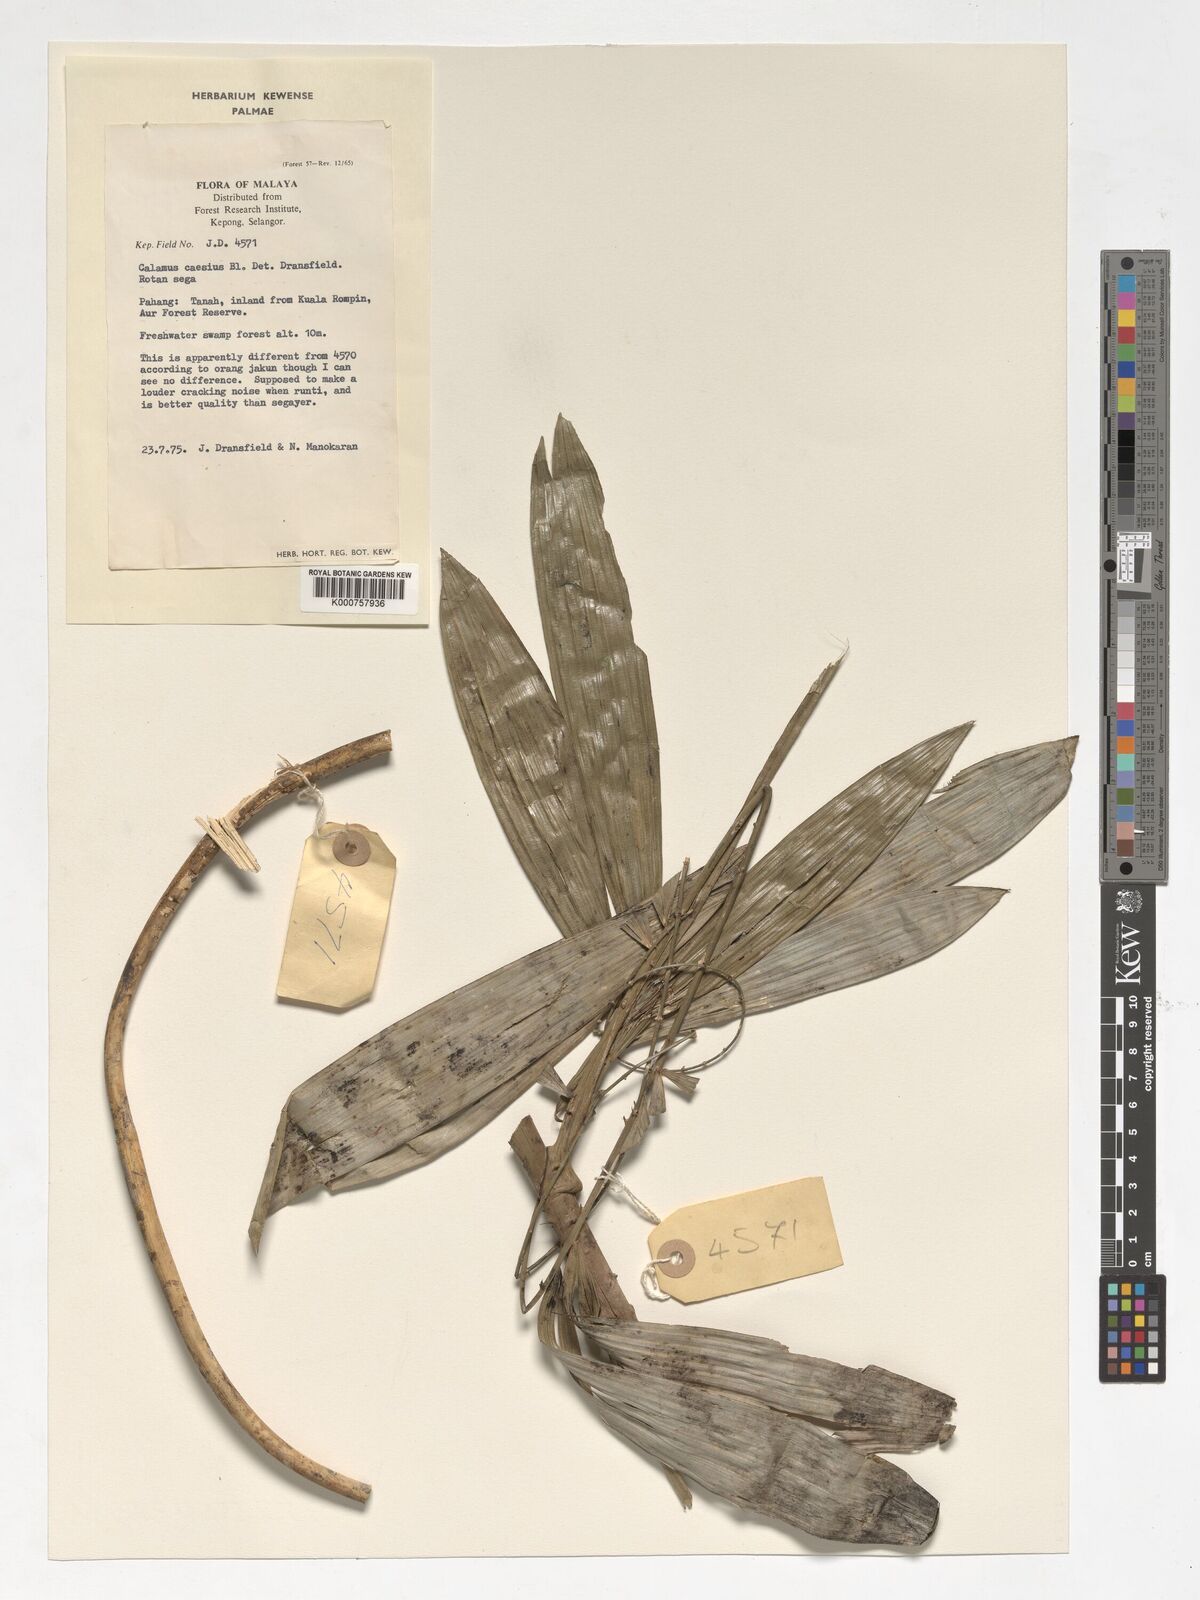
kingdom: Plantae
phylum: Tracheophyta
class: Liliopsida
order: Arecales
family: Arecaceae
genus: Calamus
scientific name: Calamus caesius
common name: Rattan palm
